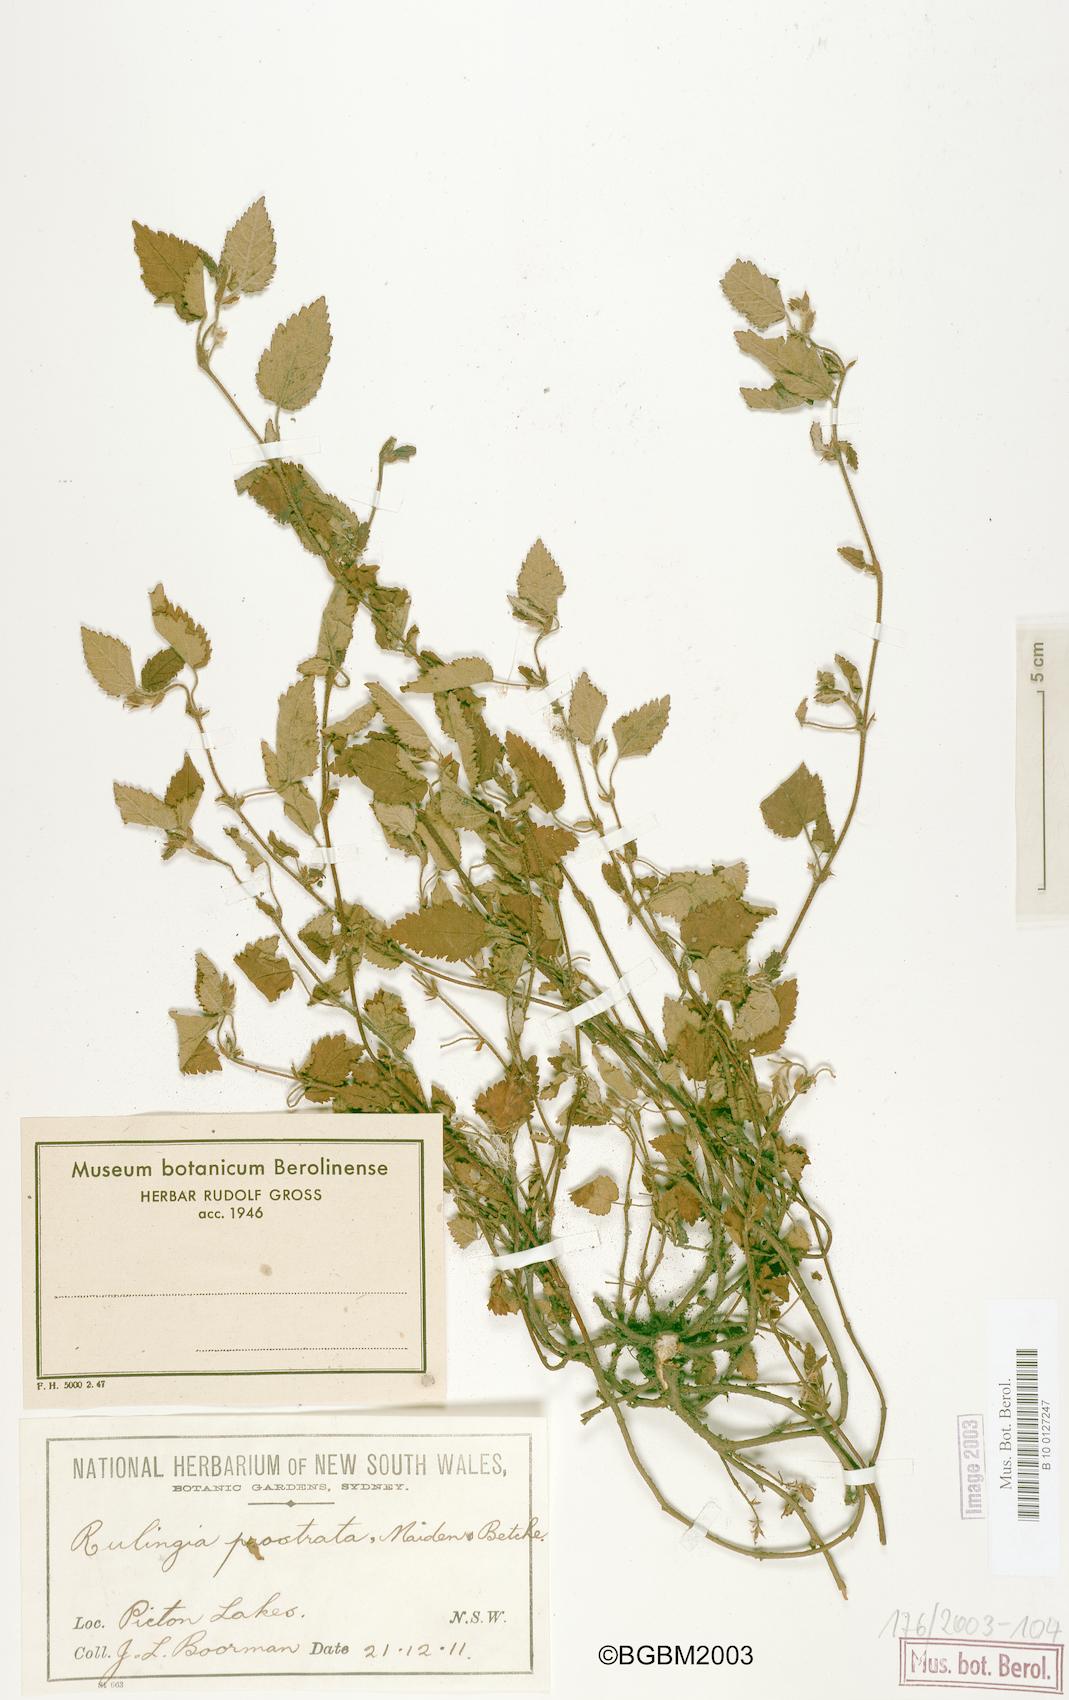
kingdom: Plantae
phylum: Tracheophyta
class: Magnoliopsida
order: Malvales
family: Malvaceae
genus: Commersonia
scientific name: Commersonia prostrata
